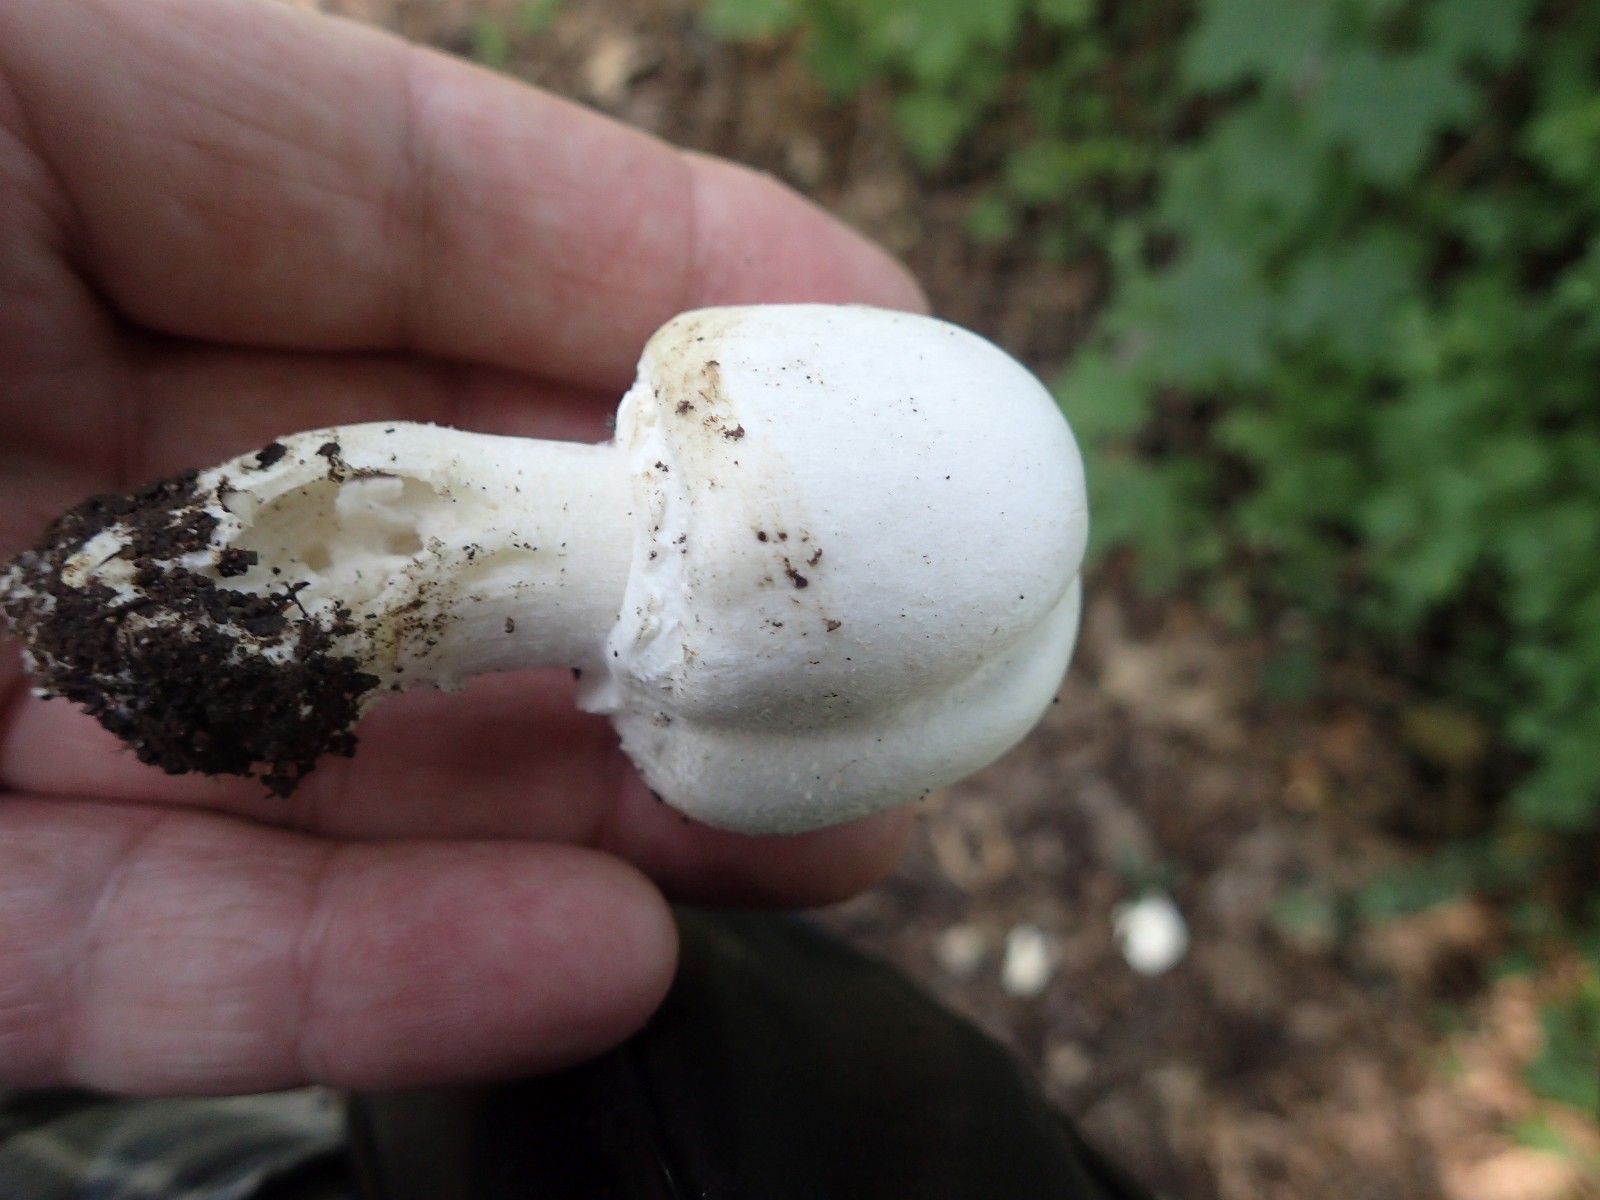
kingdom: Fungi
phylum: Basidiomycota
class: Agaricomycetes
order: Agaricales
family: Agaricaceae
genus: Agaricus
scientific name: Agaricus arvensis
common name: ager-champignon
